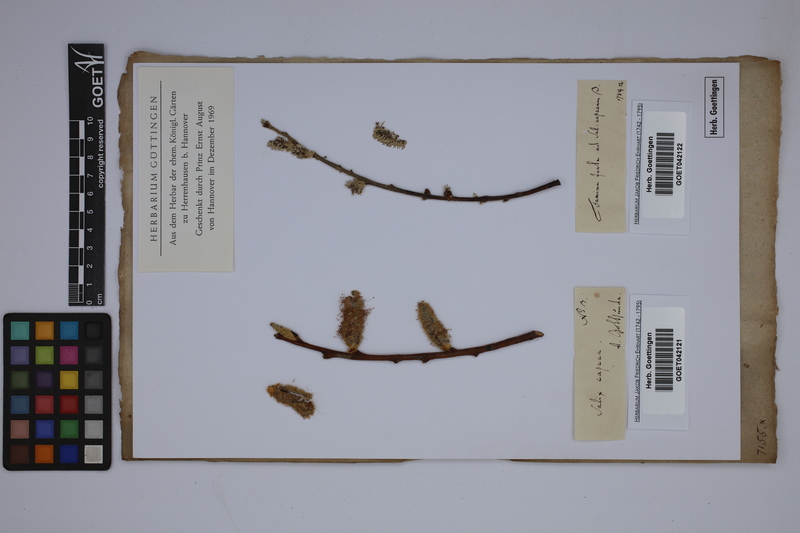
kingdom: Plantae
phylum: Tracheophyta
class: Magnoliopsida
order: Malpighiales
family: Salicaceae
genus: Salix
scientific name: Salix caprea
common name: Goat willow
